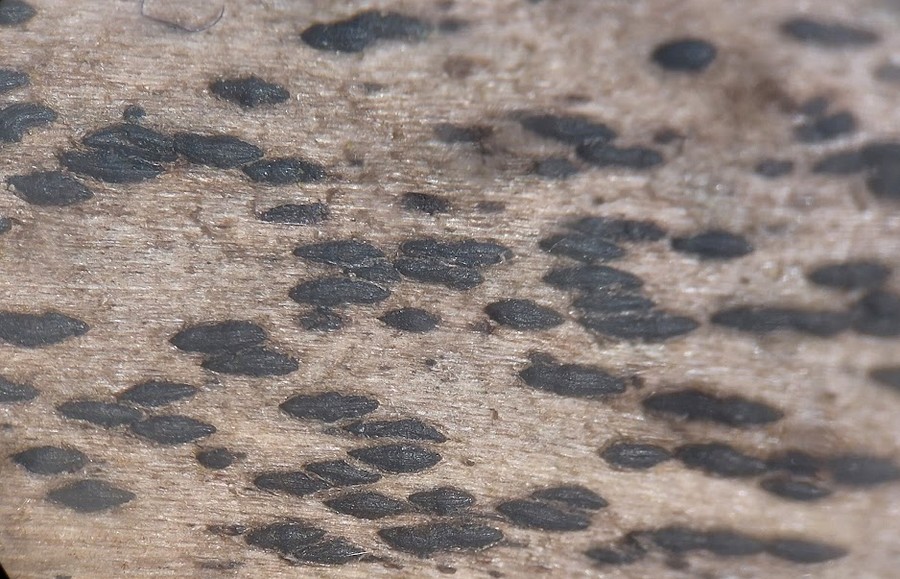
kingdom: Fungi
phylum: Ascomycota
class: Dothideomycetes
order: Hysteriales
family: Hysteriaceae
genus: Hysterobrevium
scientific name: Hysterobrevium mori
